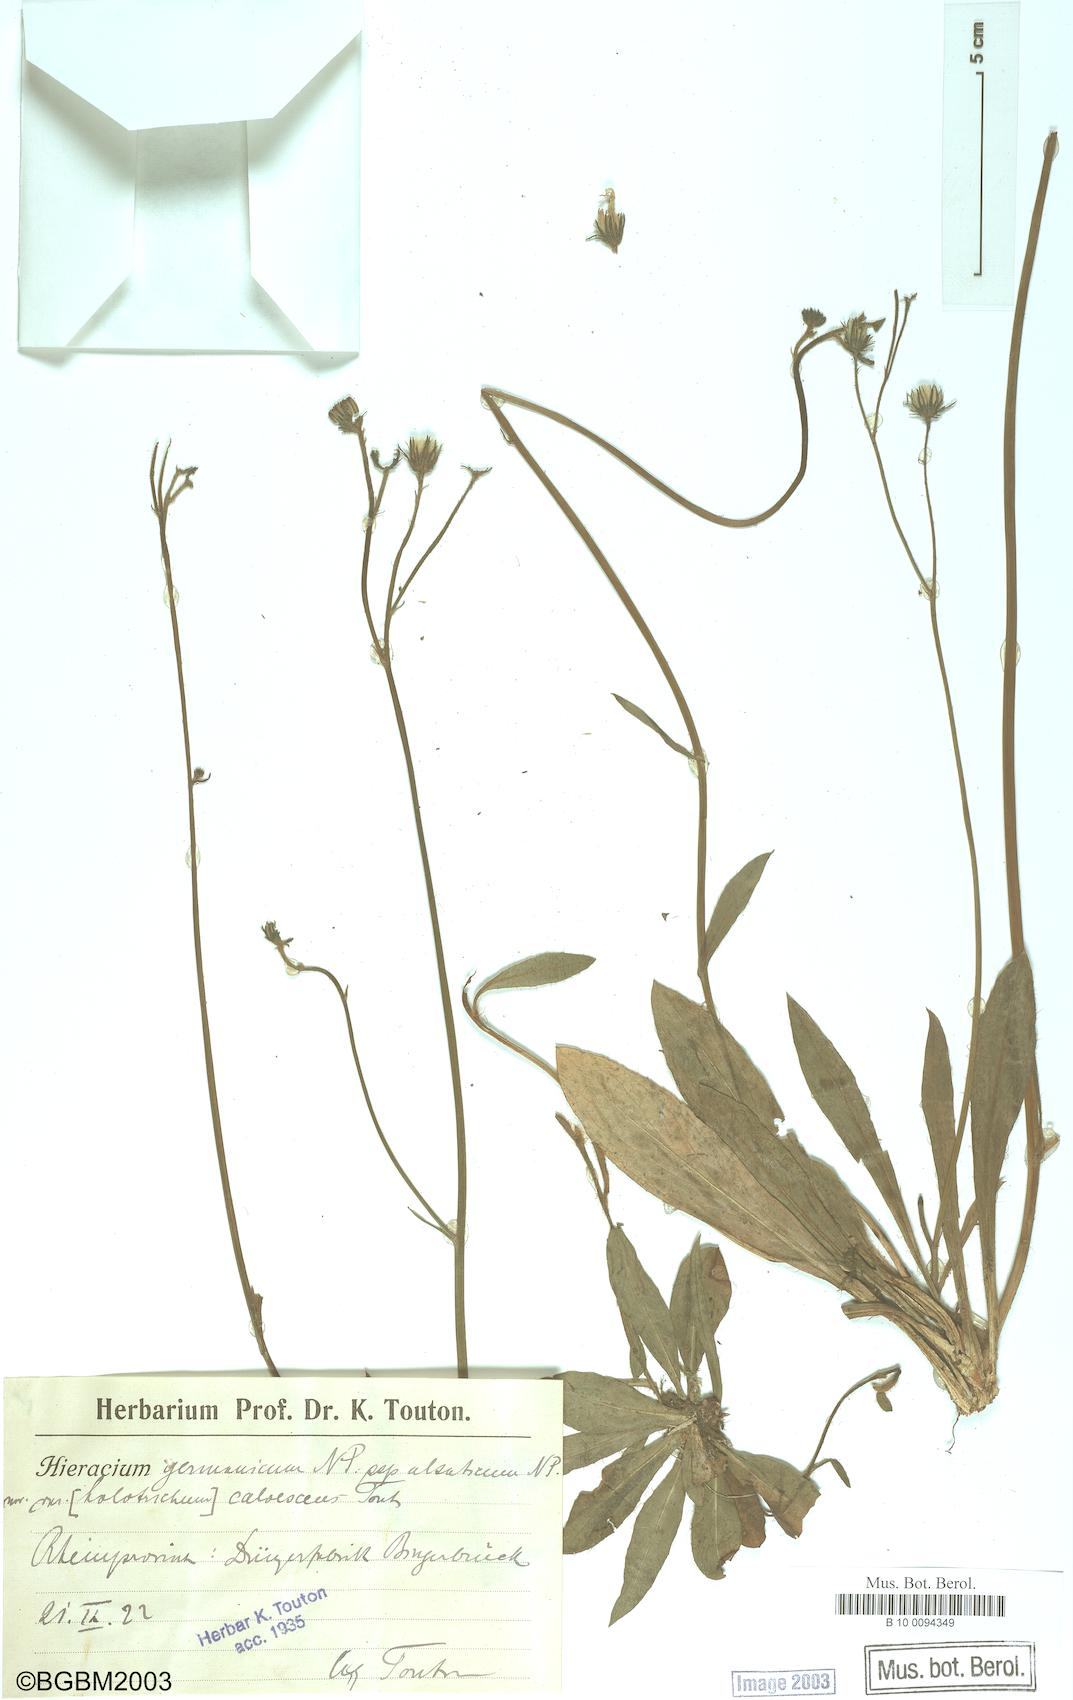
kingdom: Plantae
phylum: Tracheophyta
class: Magnoliopsida
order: Asterales
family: Asteraceae
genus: Pilosella
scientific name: Pilosella fallacina
